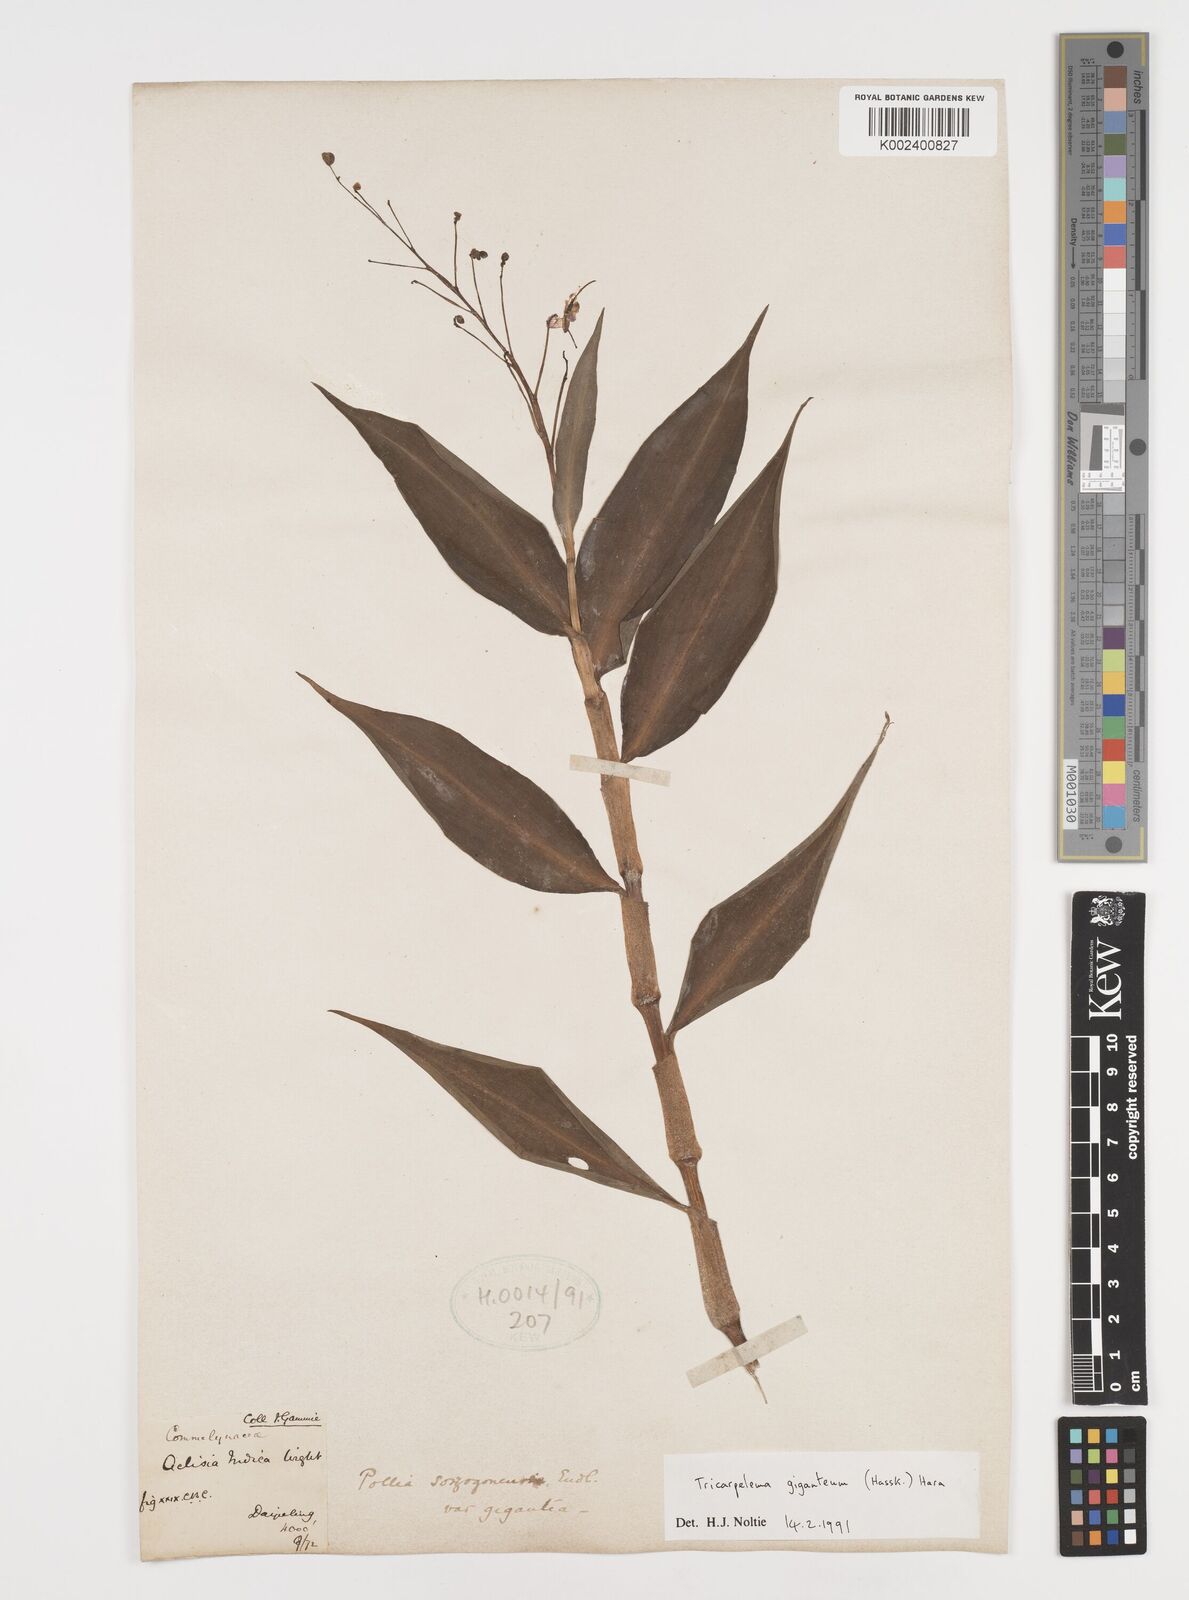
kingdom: Plantae
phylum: Tracheophyta
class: Liliopsida
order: Commelinales
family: Commelinaceae
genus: Tricarpelema
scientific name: Tricarpelema giganteum
